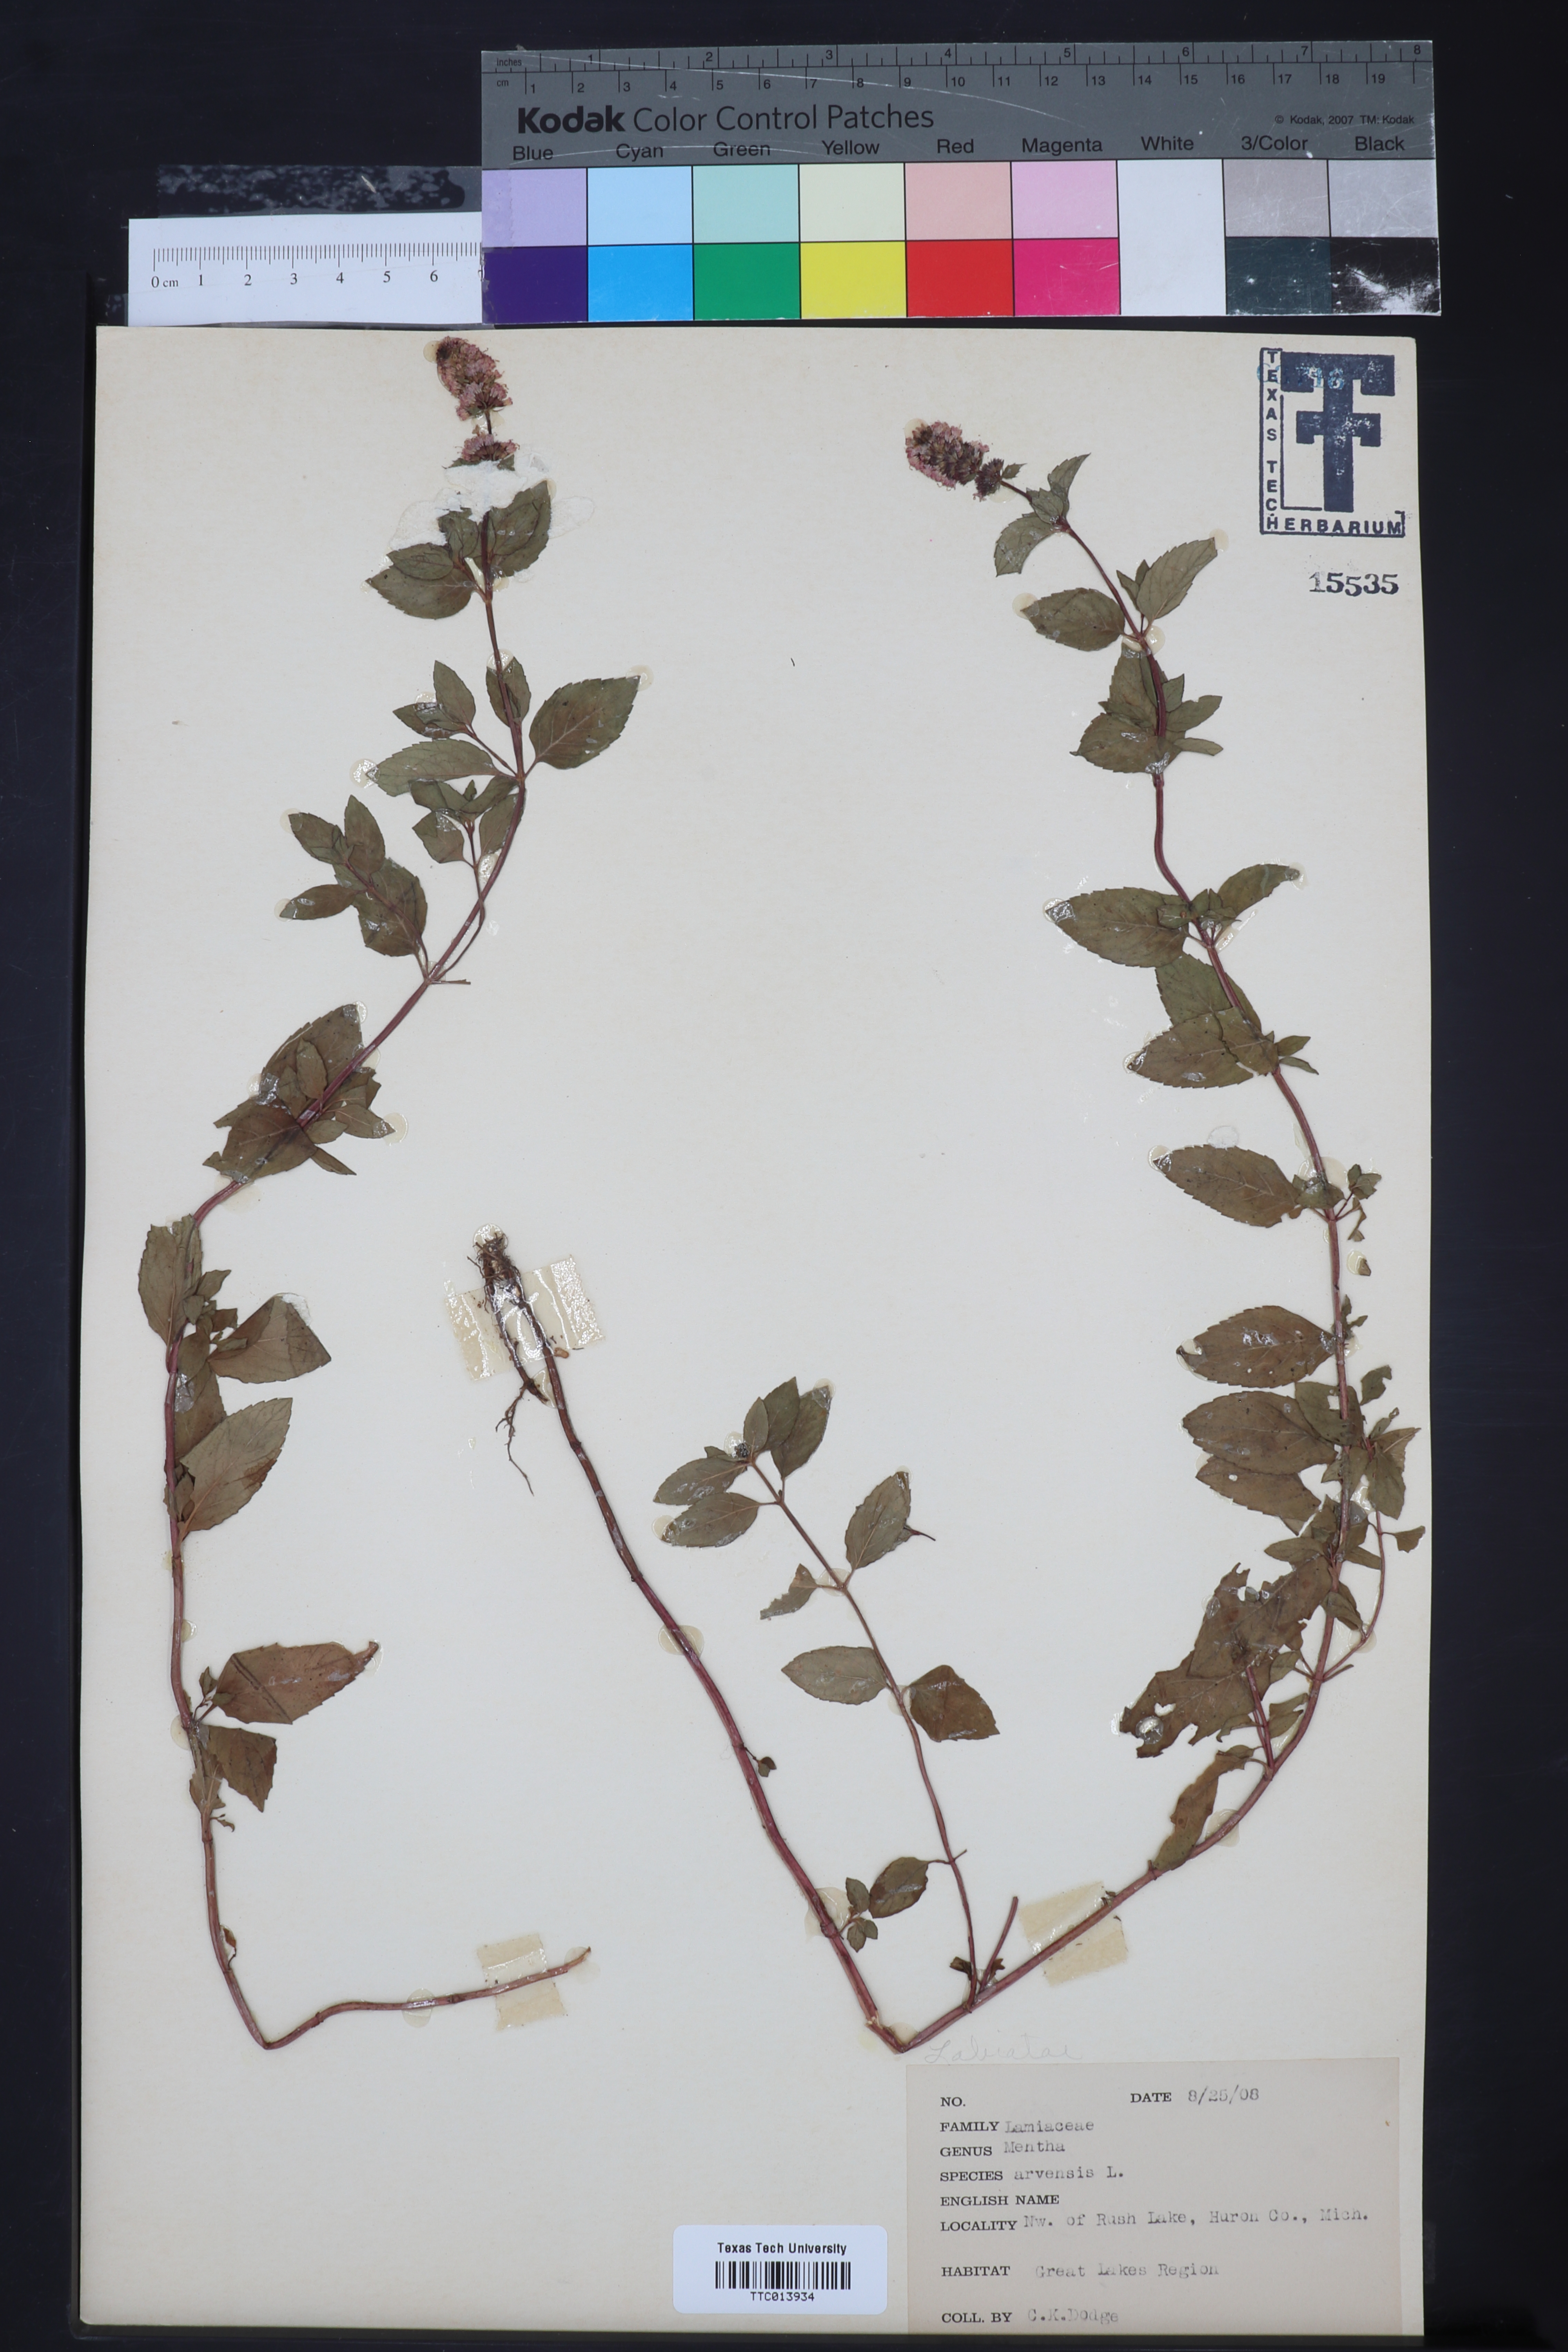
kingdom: Plantae
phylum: Tracheophyta
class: Magnoliopsida
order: Lamiales
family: Lamiaceae
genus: Mentha
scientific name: Mentha arvensis
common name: Corn mint
